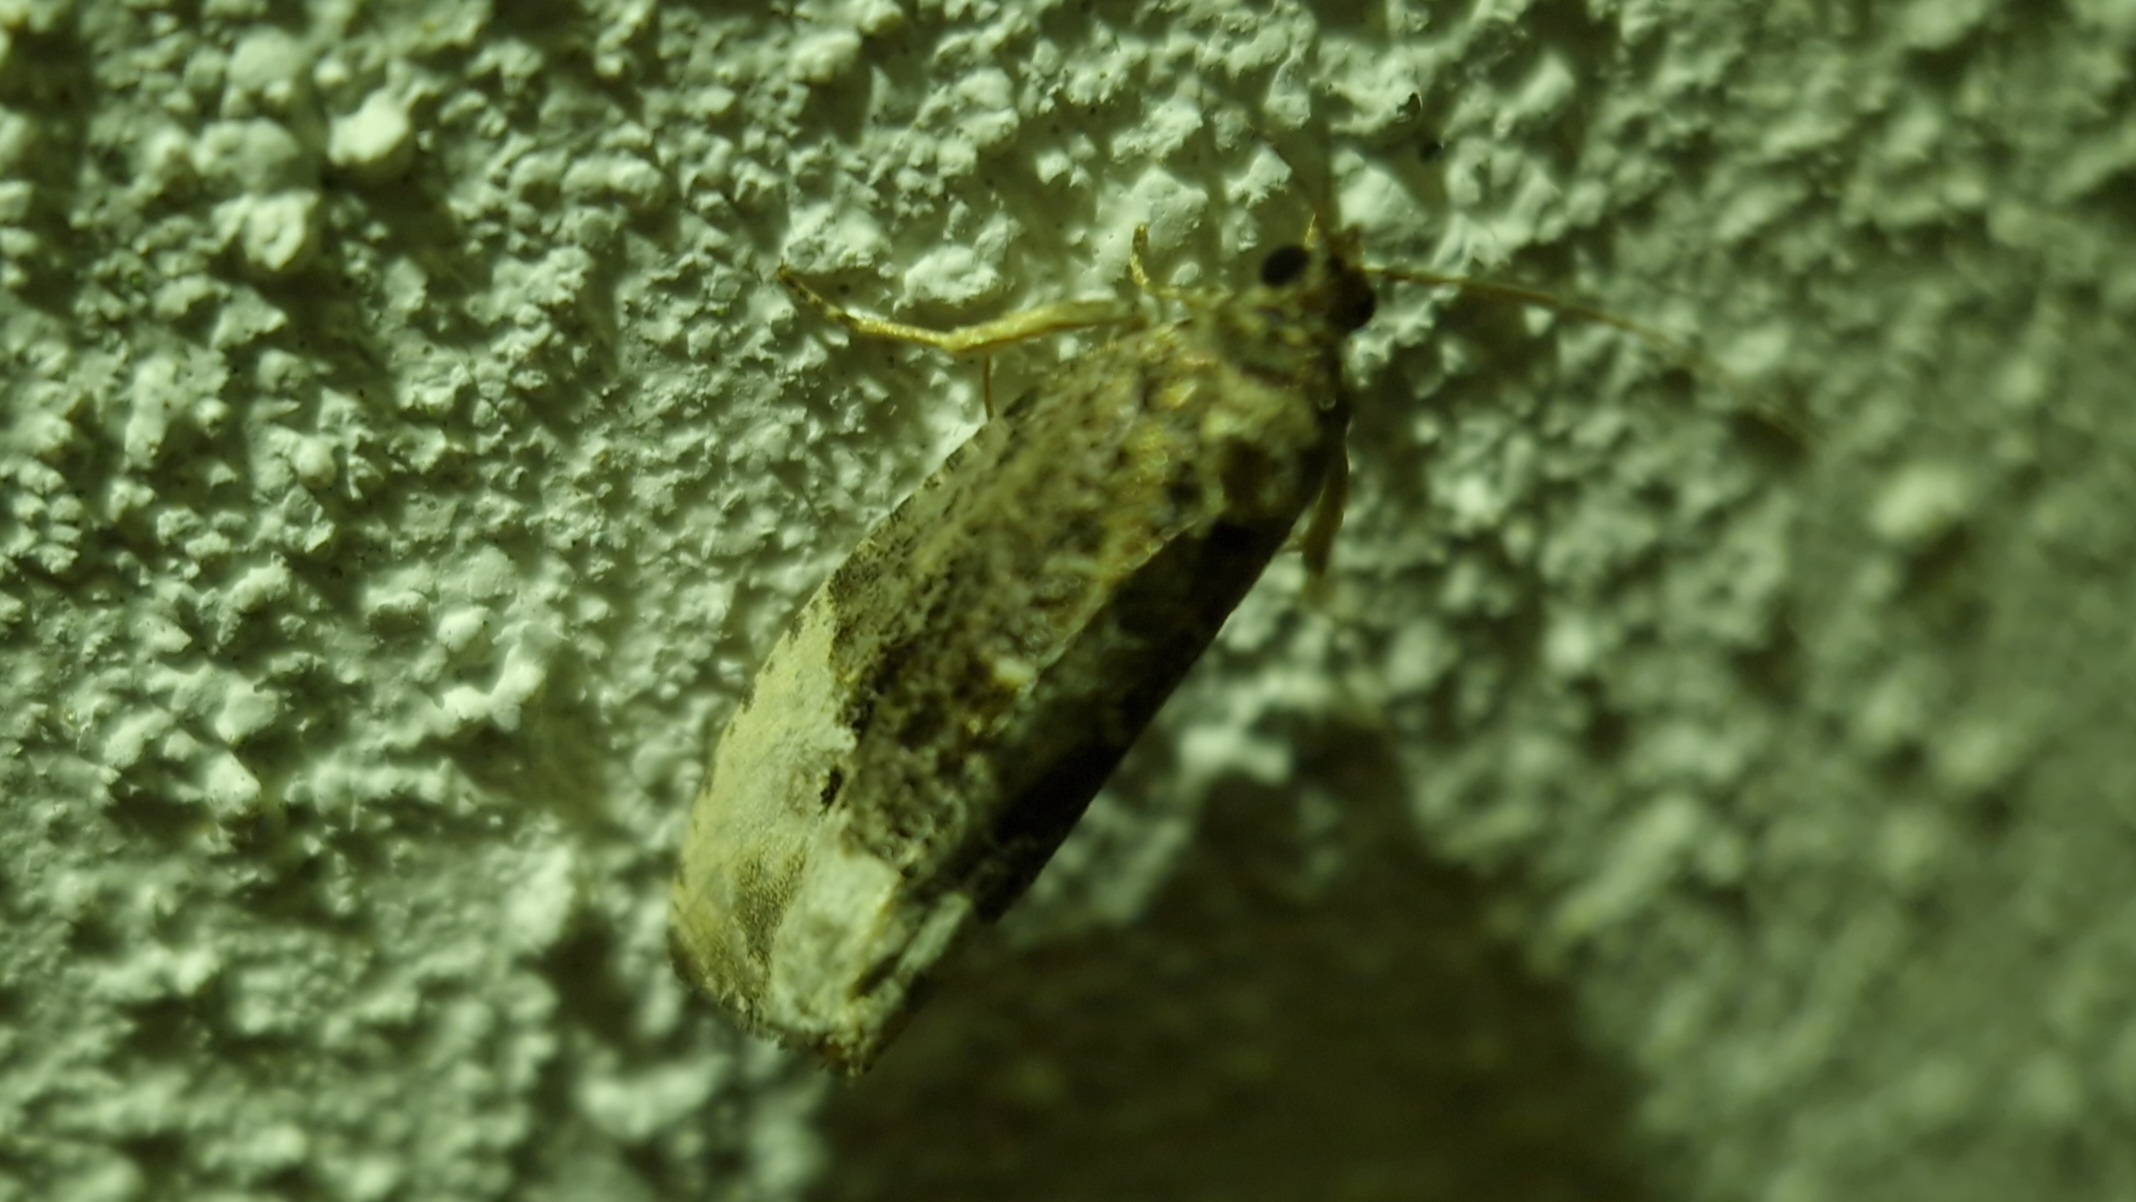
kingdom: Animalia
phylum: Arthropoda
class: Insecta
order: Lepidoptera
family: Tortricidae
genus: Hedya
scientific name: Hedya nubiferana
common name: Grå knopvikler
